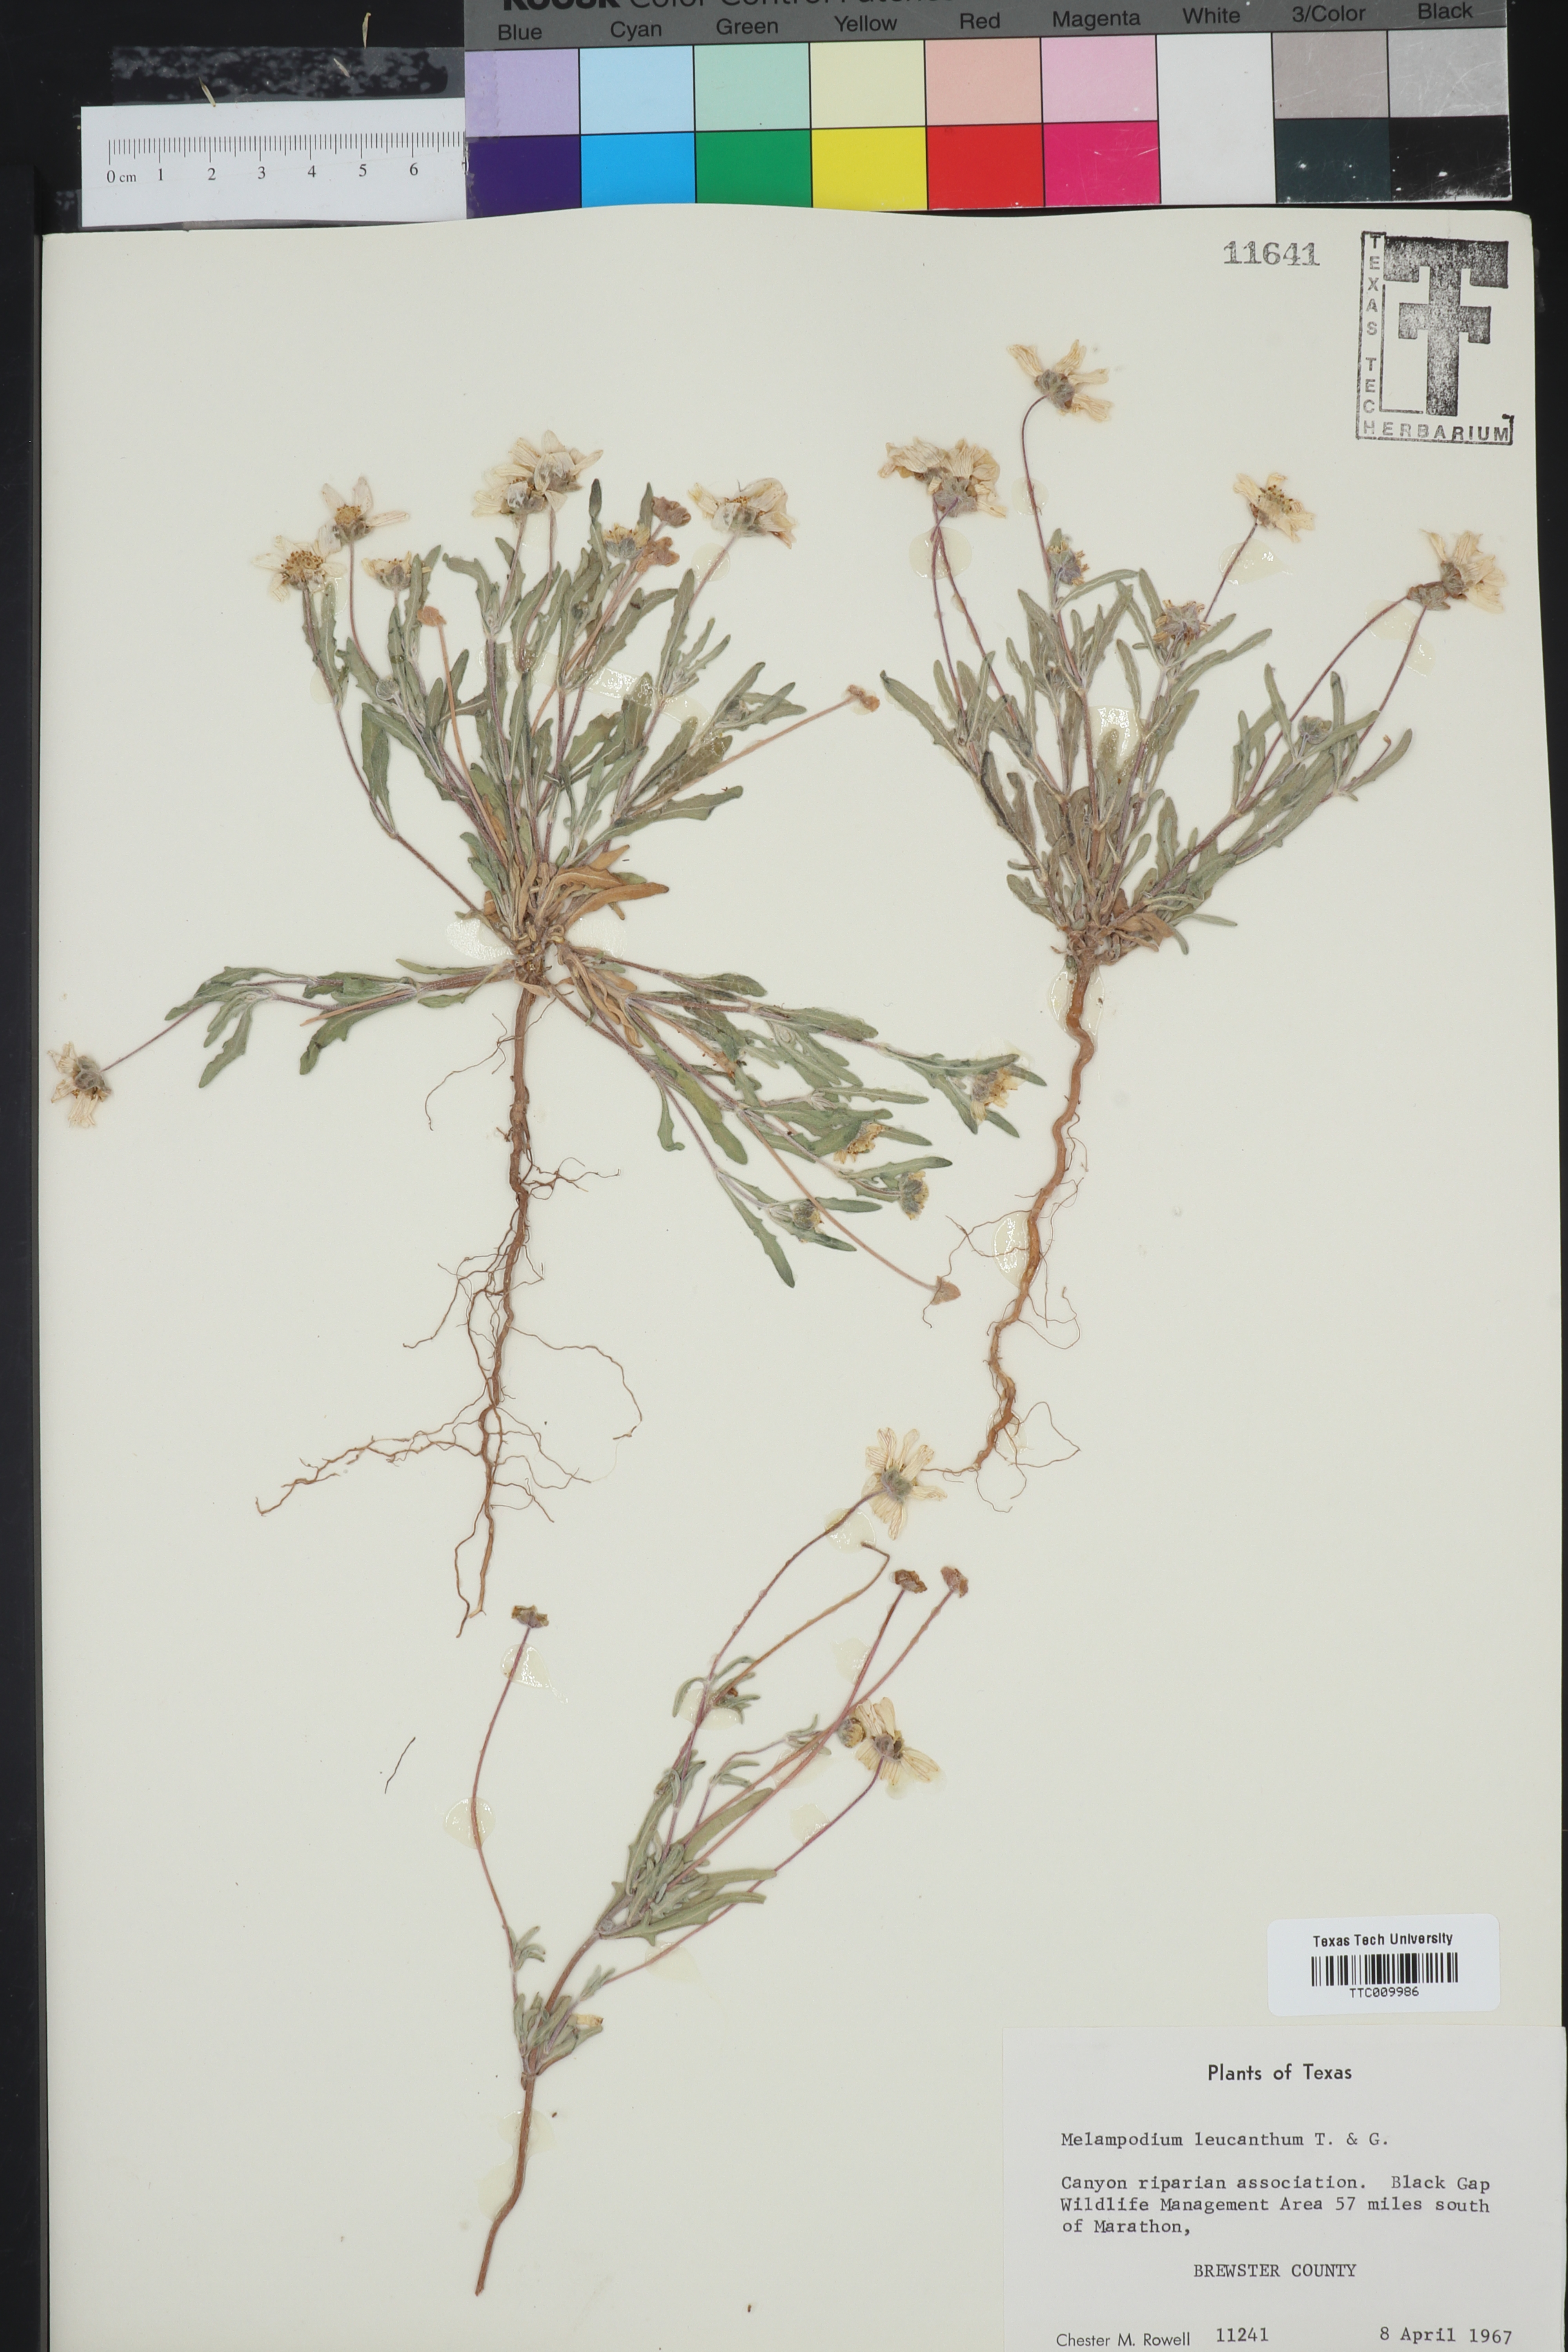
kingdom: Plantae
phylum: Tracheophyta
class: Magnoliopsida
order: Asterales
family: Asteraceae
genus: Melampodium
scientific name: Melampodium leucanthum
